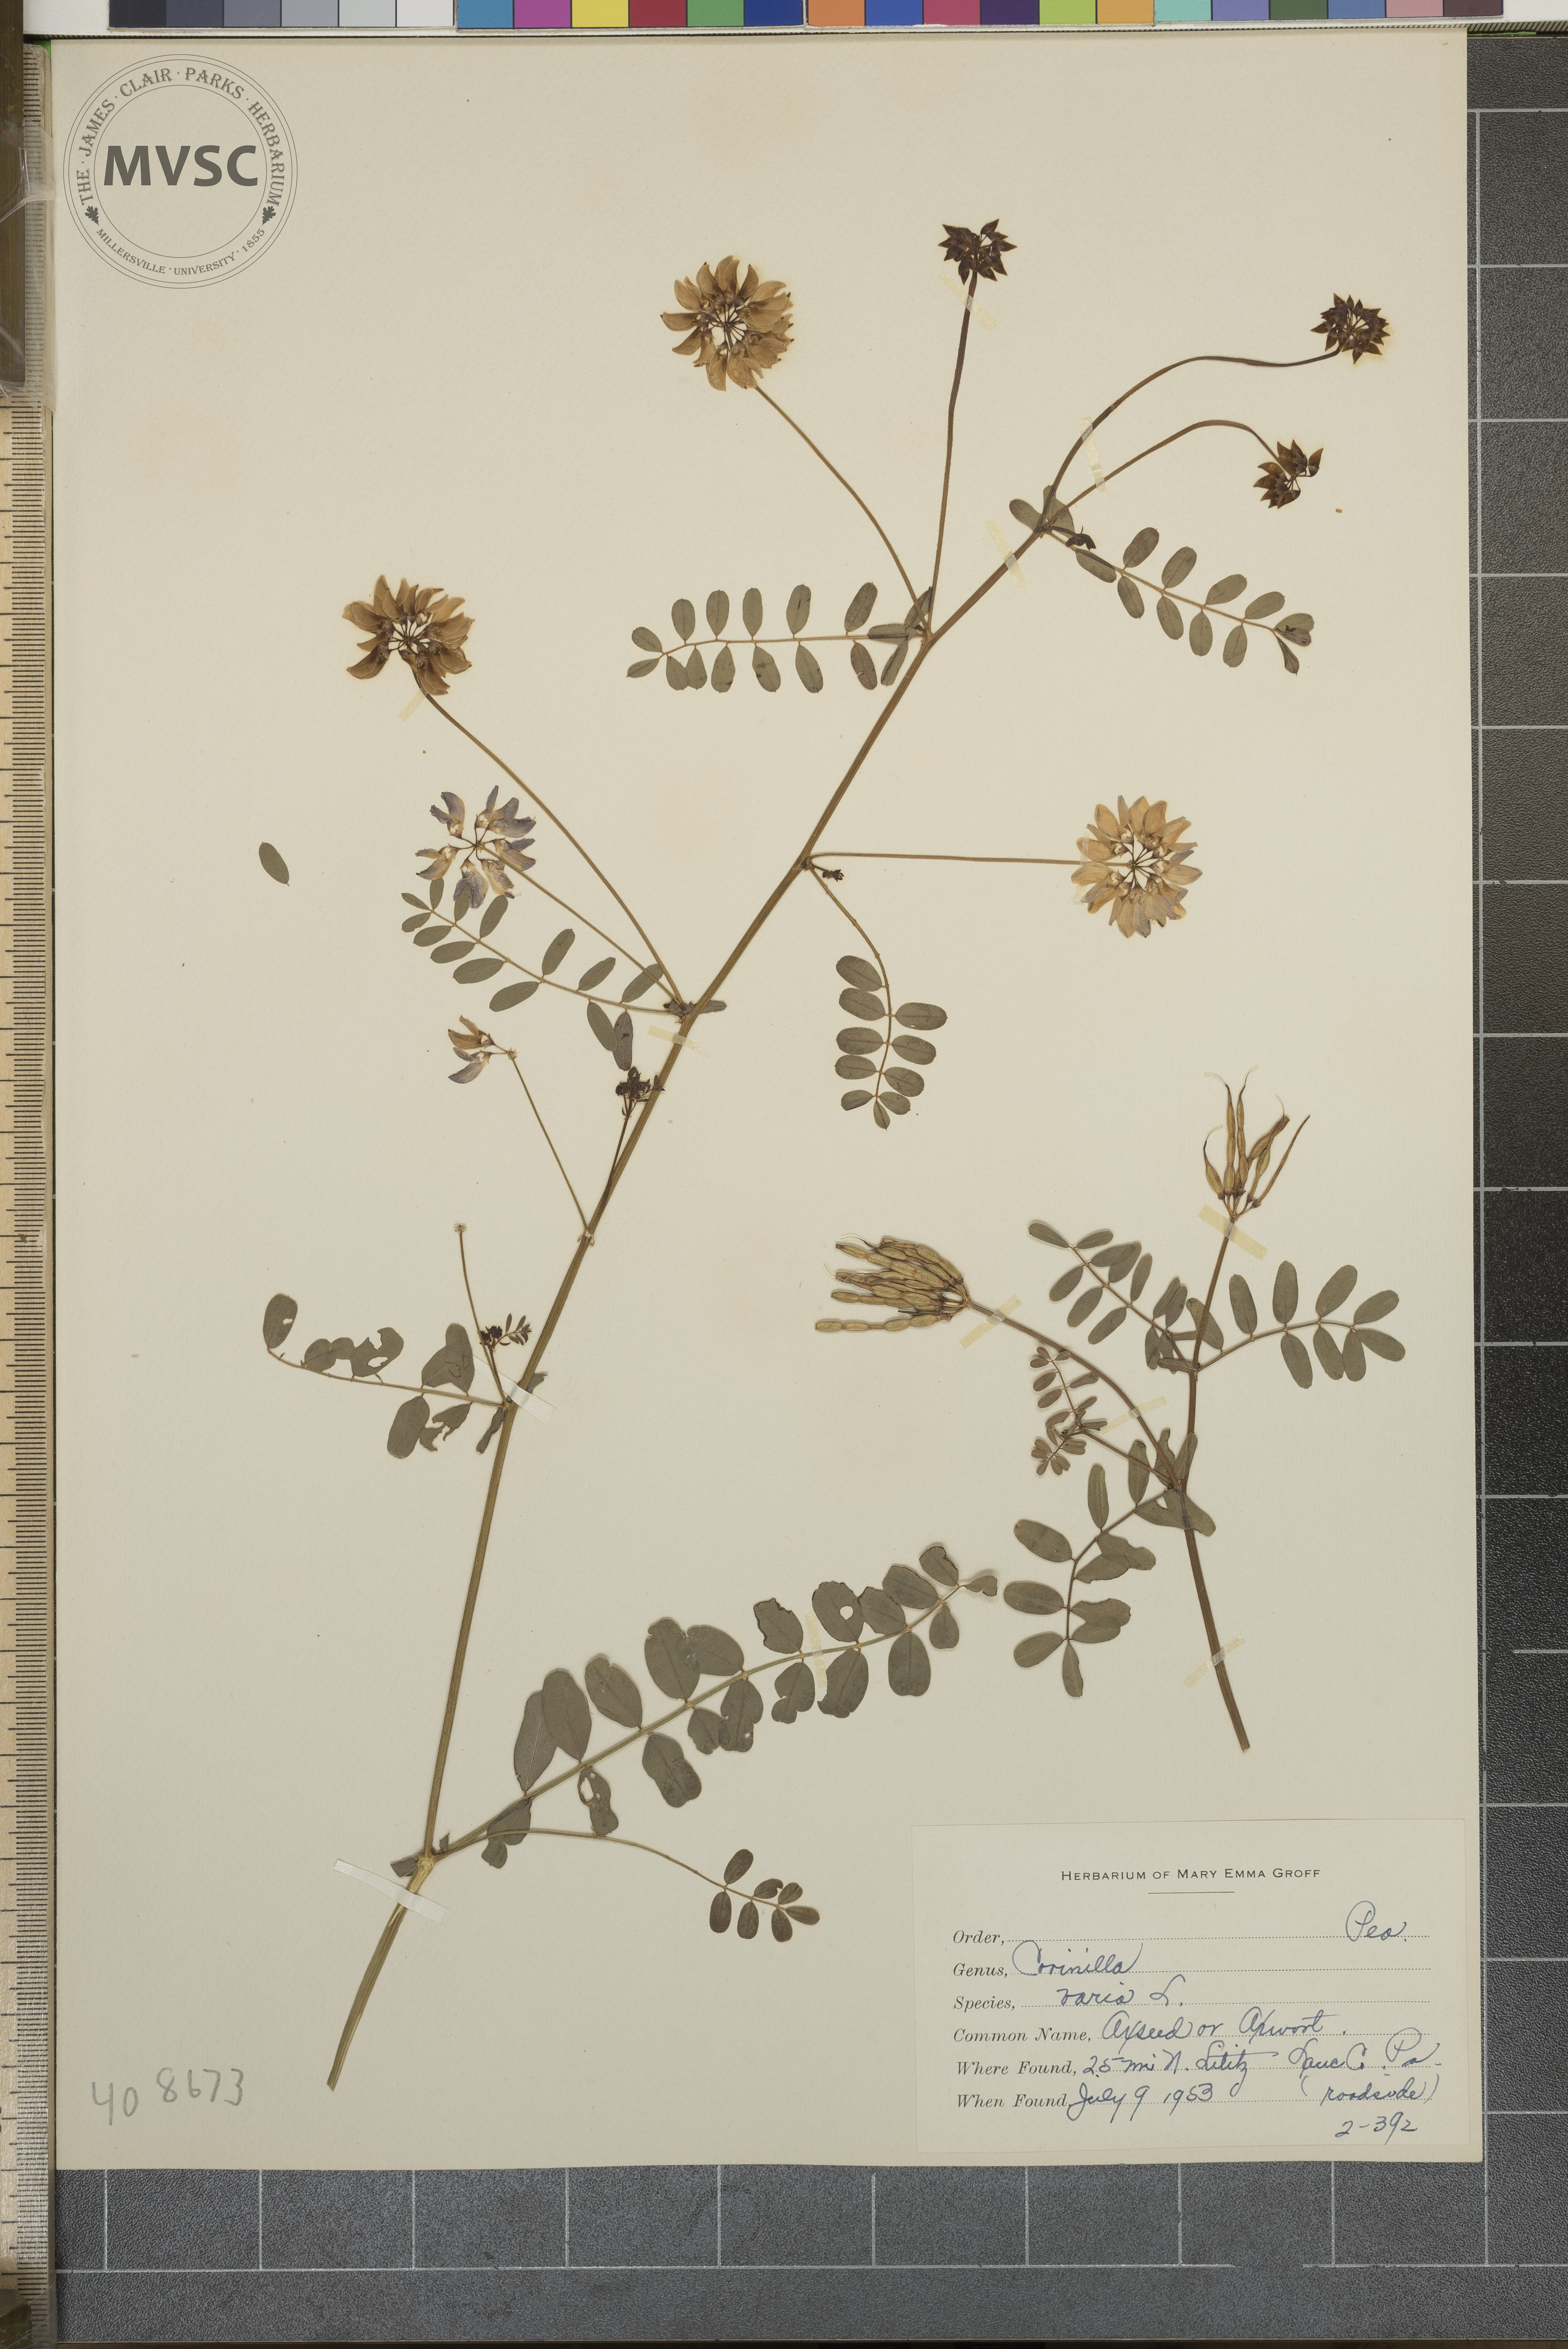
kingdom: Plantae
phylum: Tracheophyta
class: Magnoliopsida
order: Fabales
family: Fabaceae
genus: Coronilla
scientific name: Coronilla varia
